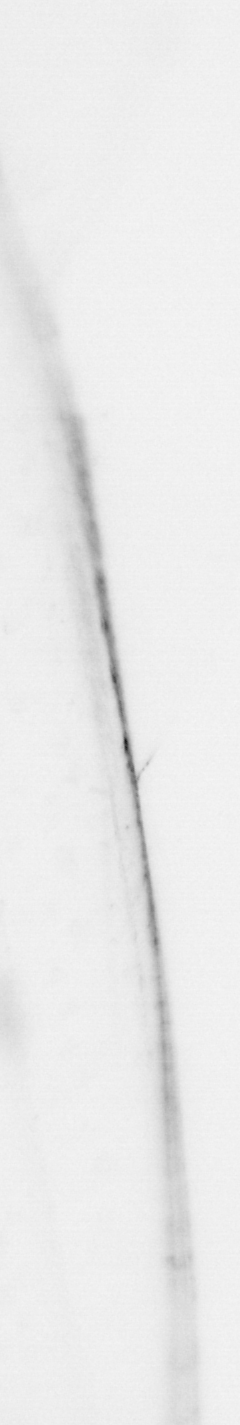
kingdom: Chromista
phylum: Ochrophyta
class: Bacillariophyceae
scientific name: Bacillariophyceae
